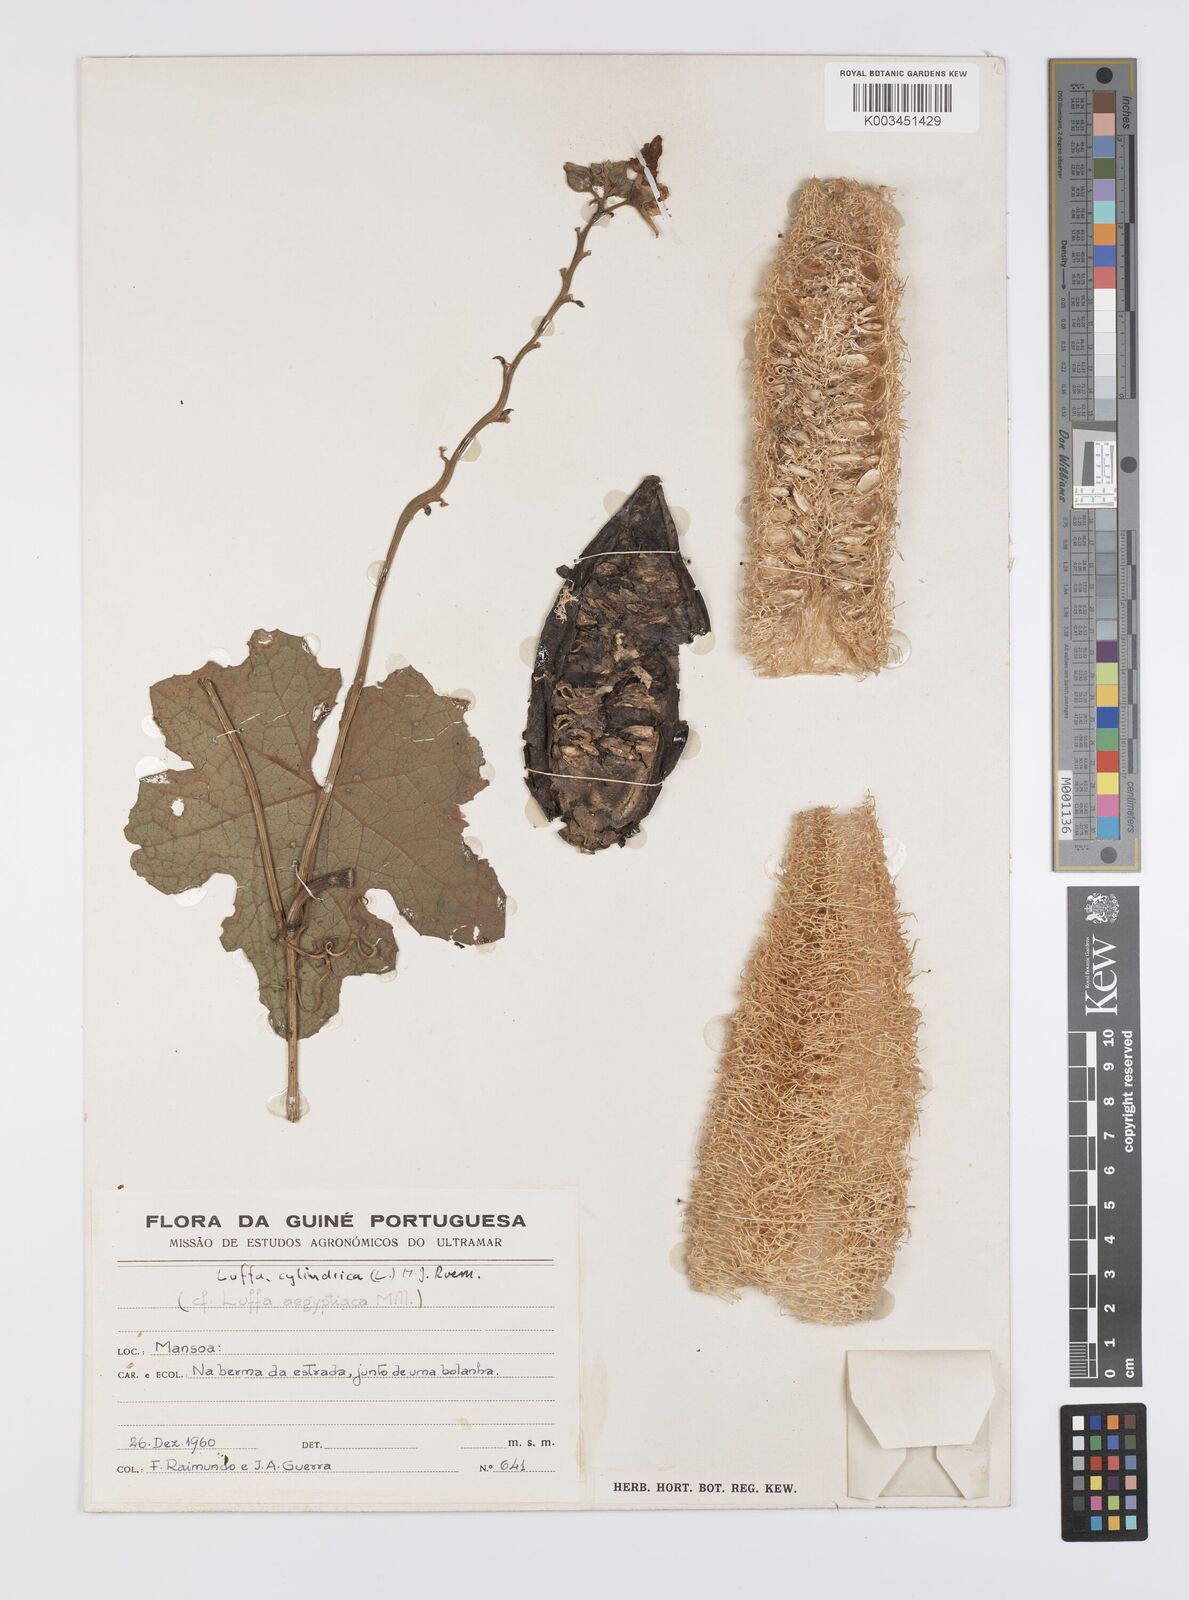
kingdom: Plantae
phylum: Tracheophyta
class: Magnoliopsida
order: Cucurbitales
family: Cucurbitaceae
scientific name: Cucurbitaceae
